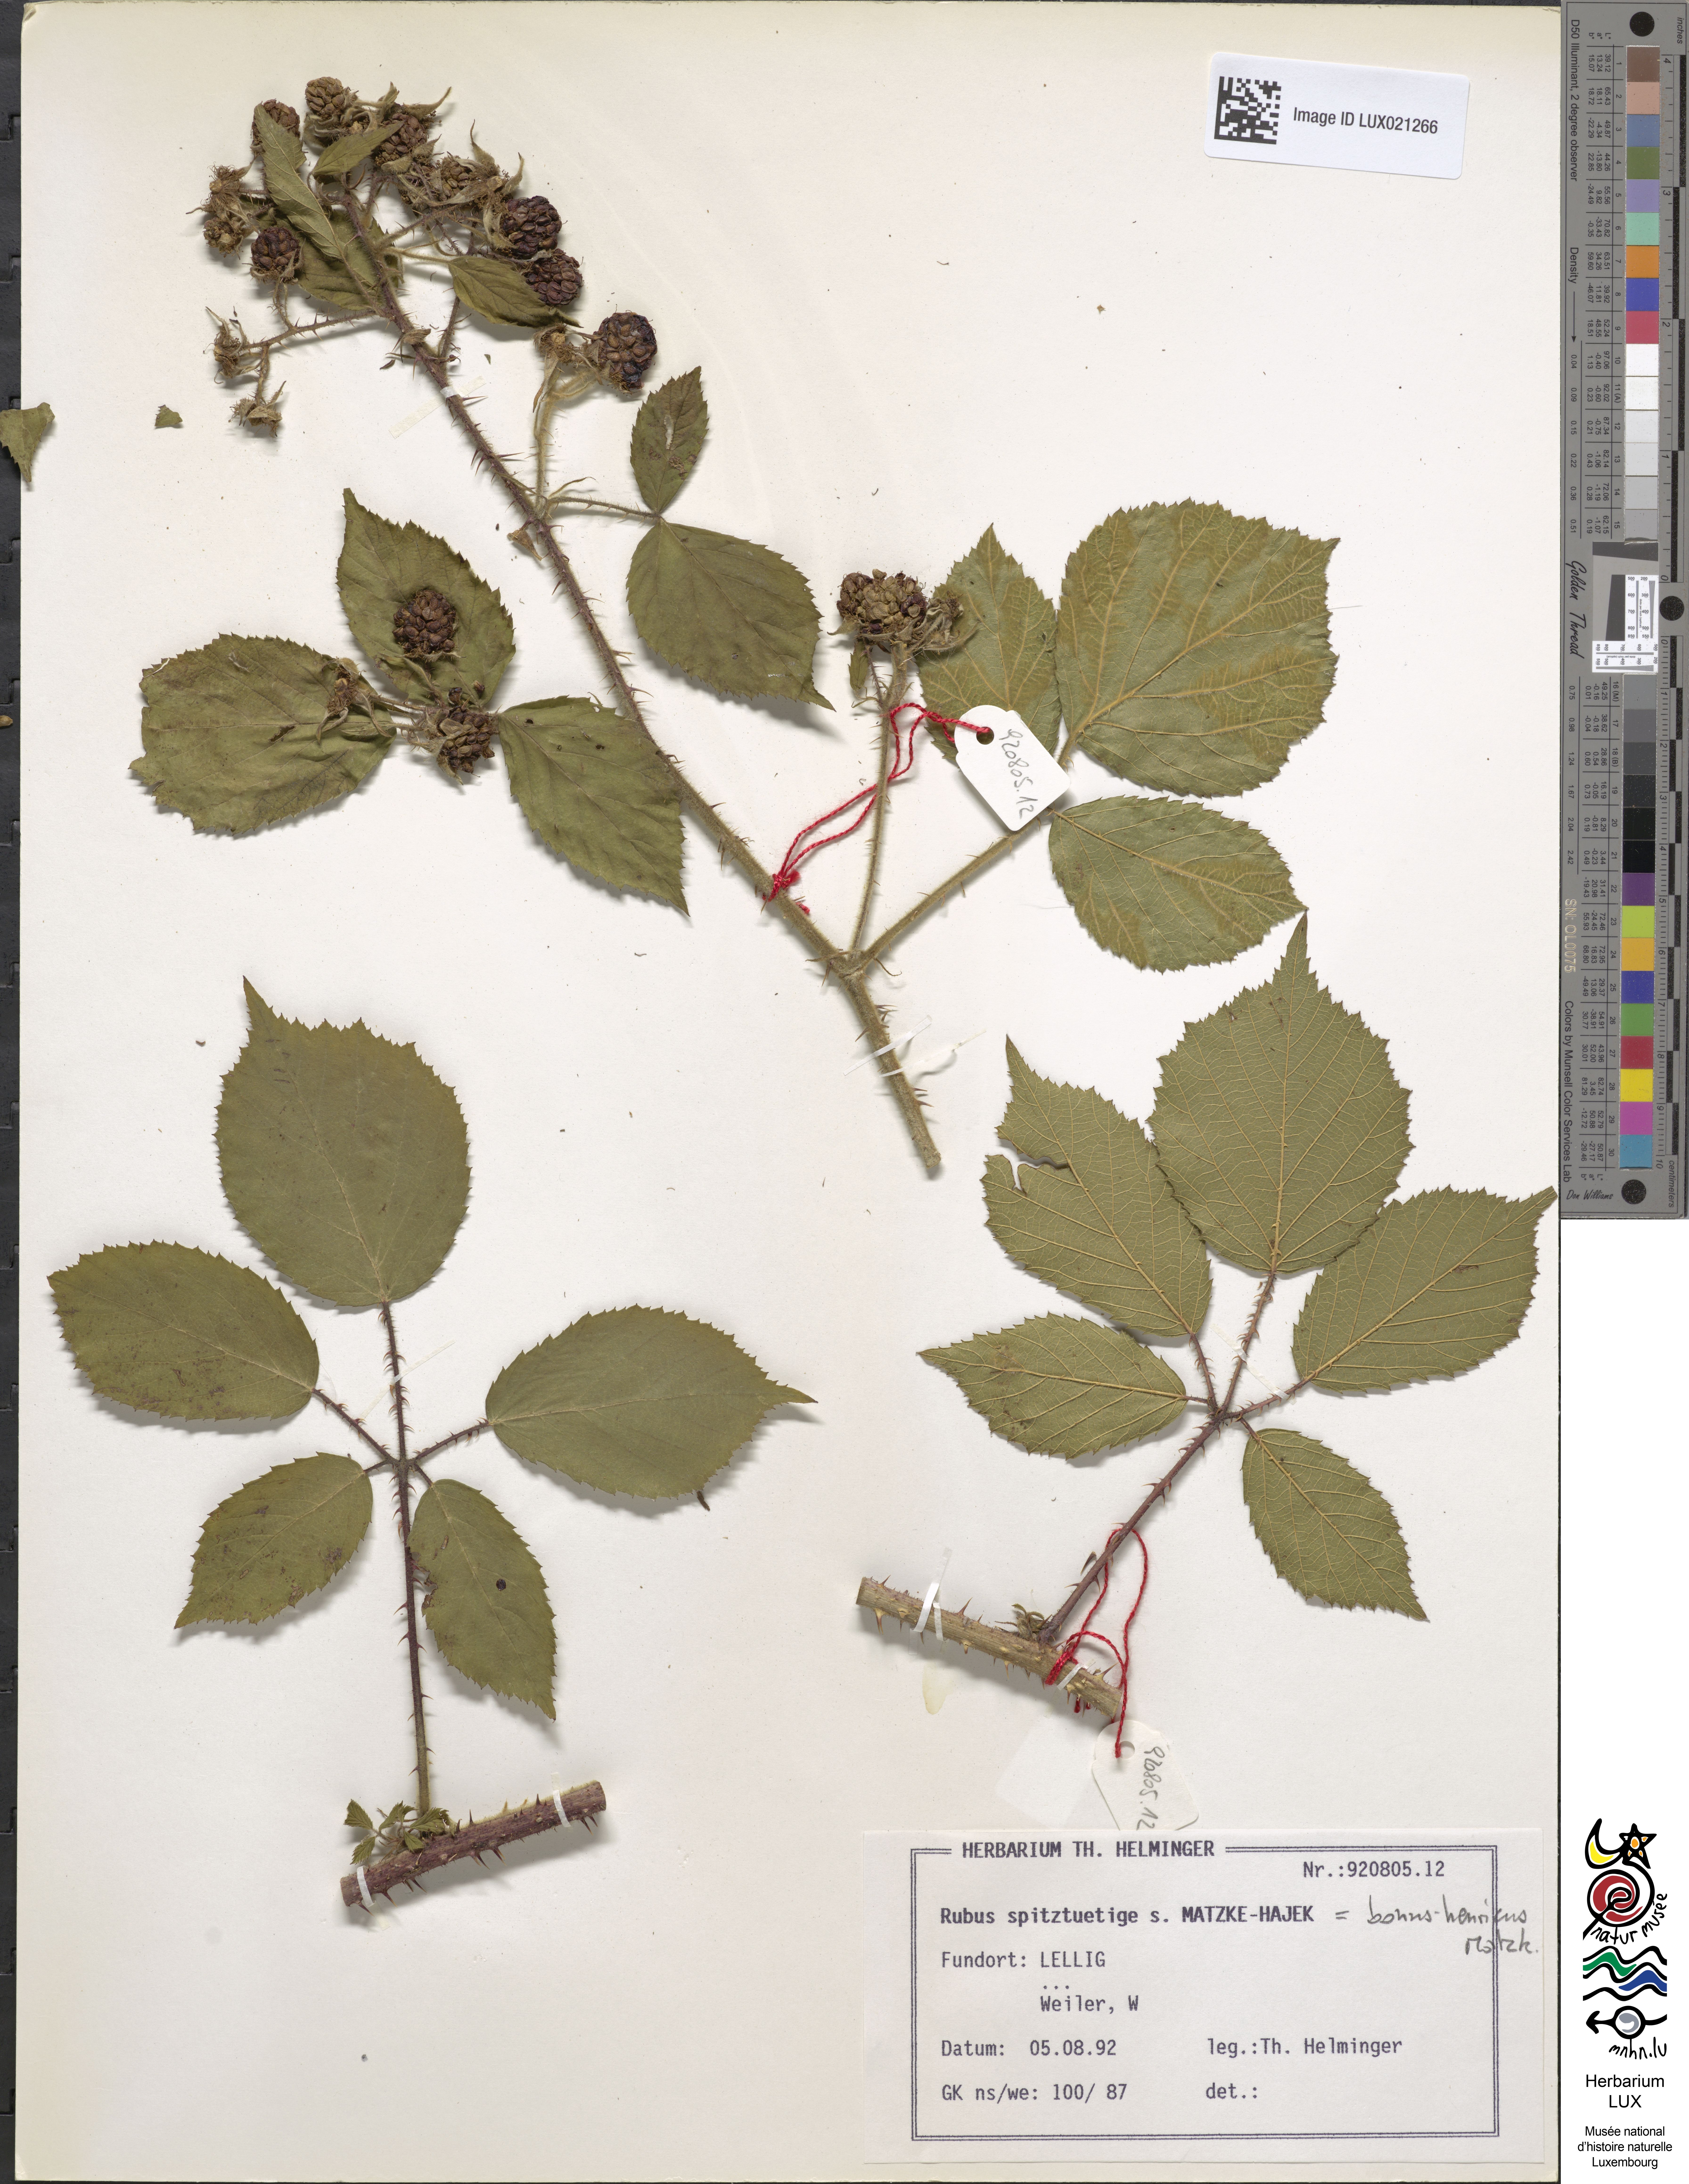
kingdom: Plantae
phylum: Tracheophyta
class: Magnoliopsida
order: Rosales
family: Rosaceae
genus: Rubus
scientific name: Rubus bonus-henricus
